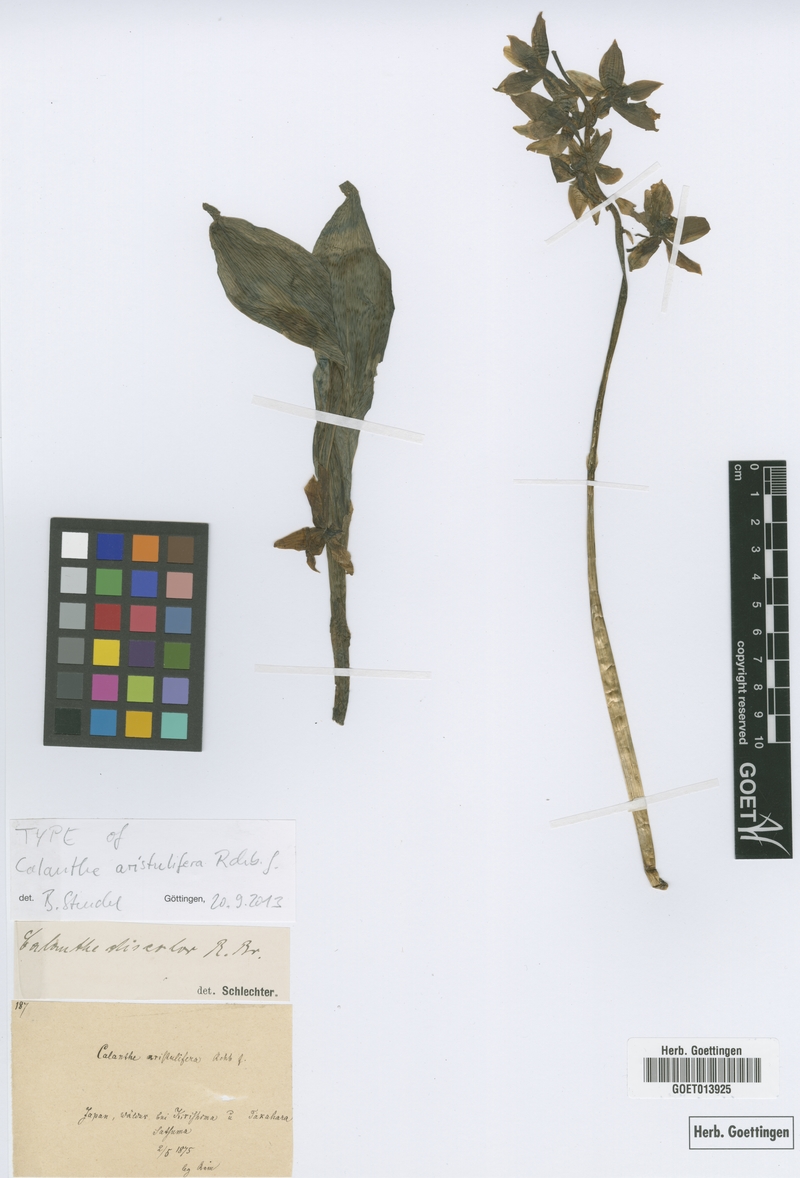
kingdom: Plantae
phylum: Tracheophyta
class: Liliopsida
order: Asparagales
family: Orchidaceae
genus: Calanthe
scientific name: Calanthe aristulifera
